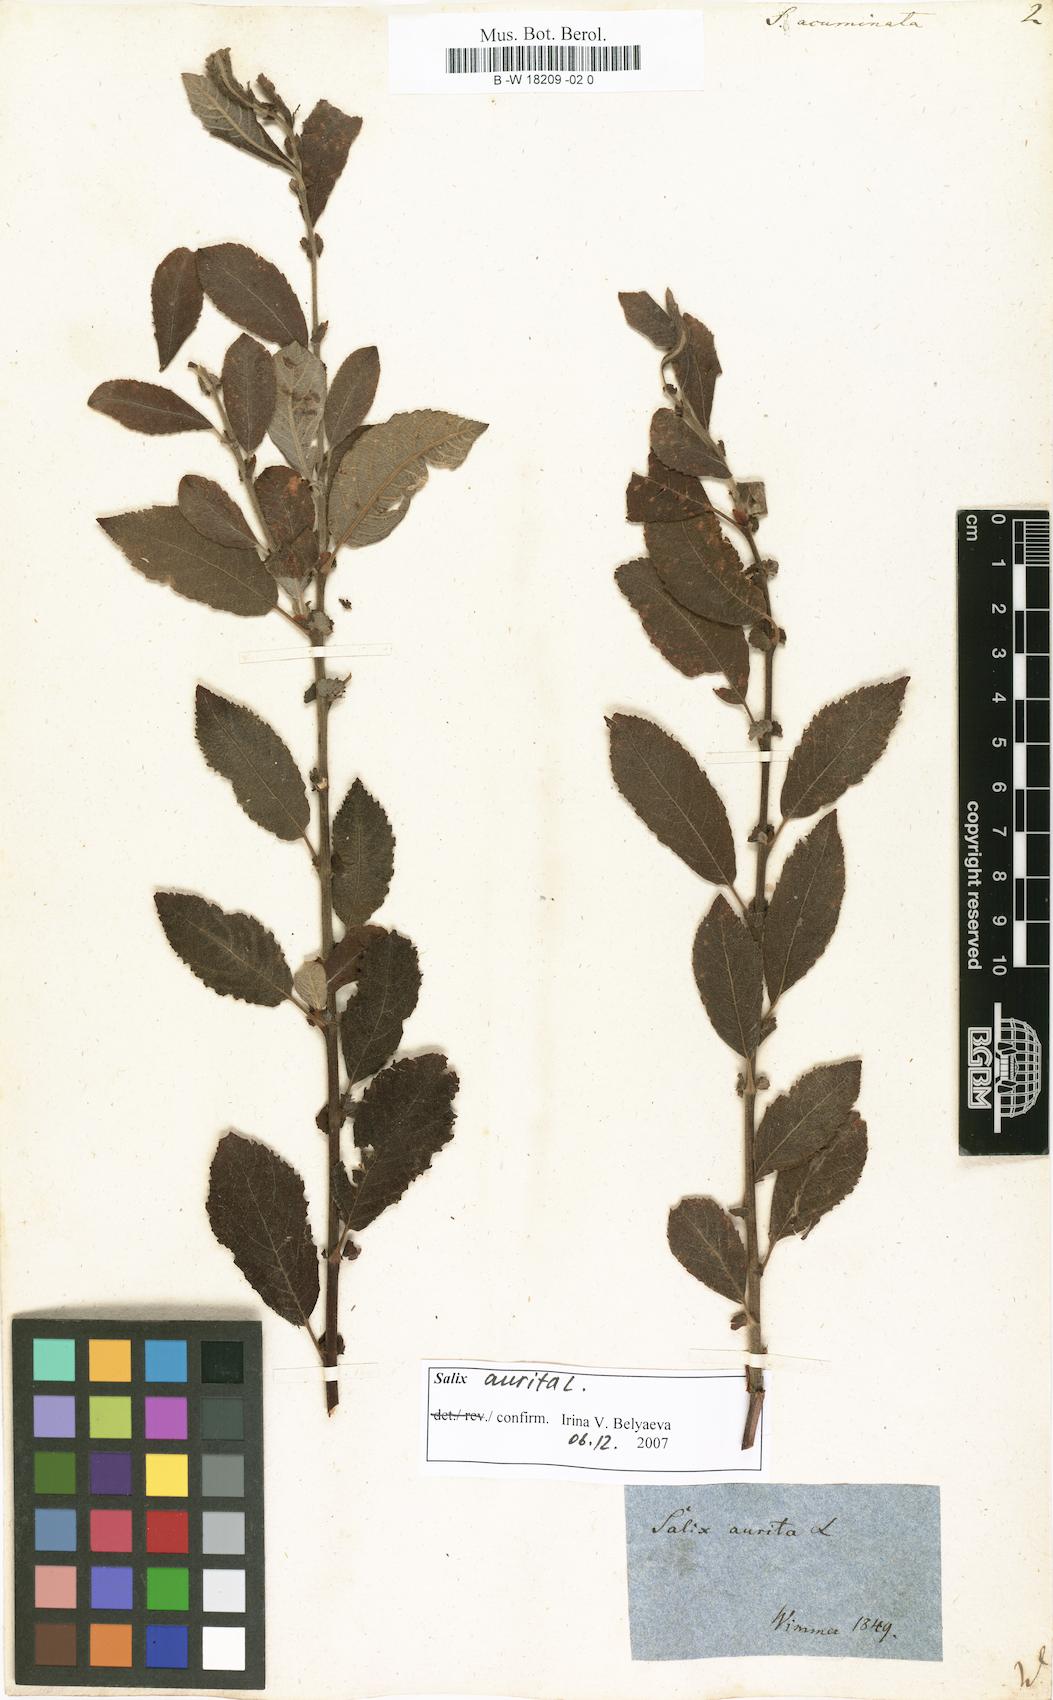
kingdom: Plantae
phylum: Tracheophyta
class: Magnoliopsida
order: Malpighiales
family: Salicaceae
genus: Salix
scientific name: Salix
